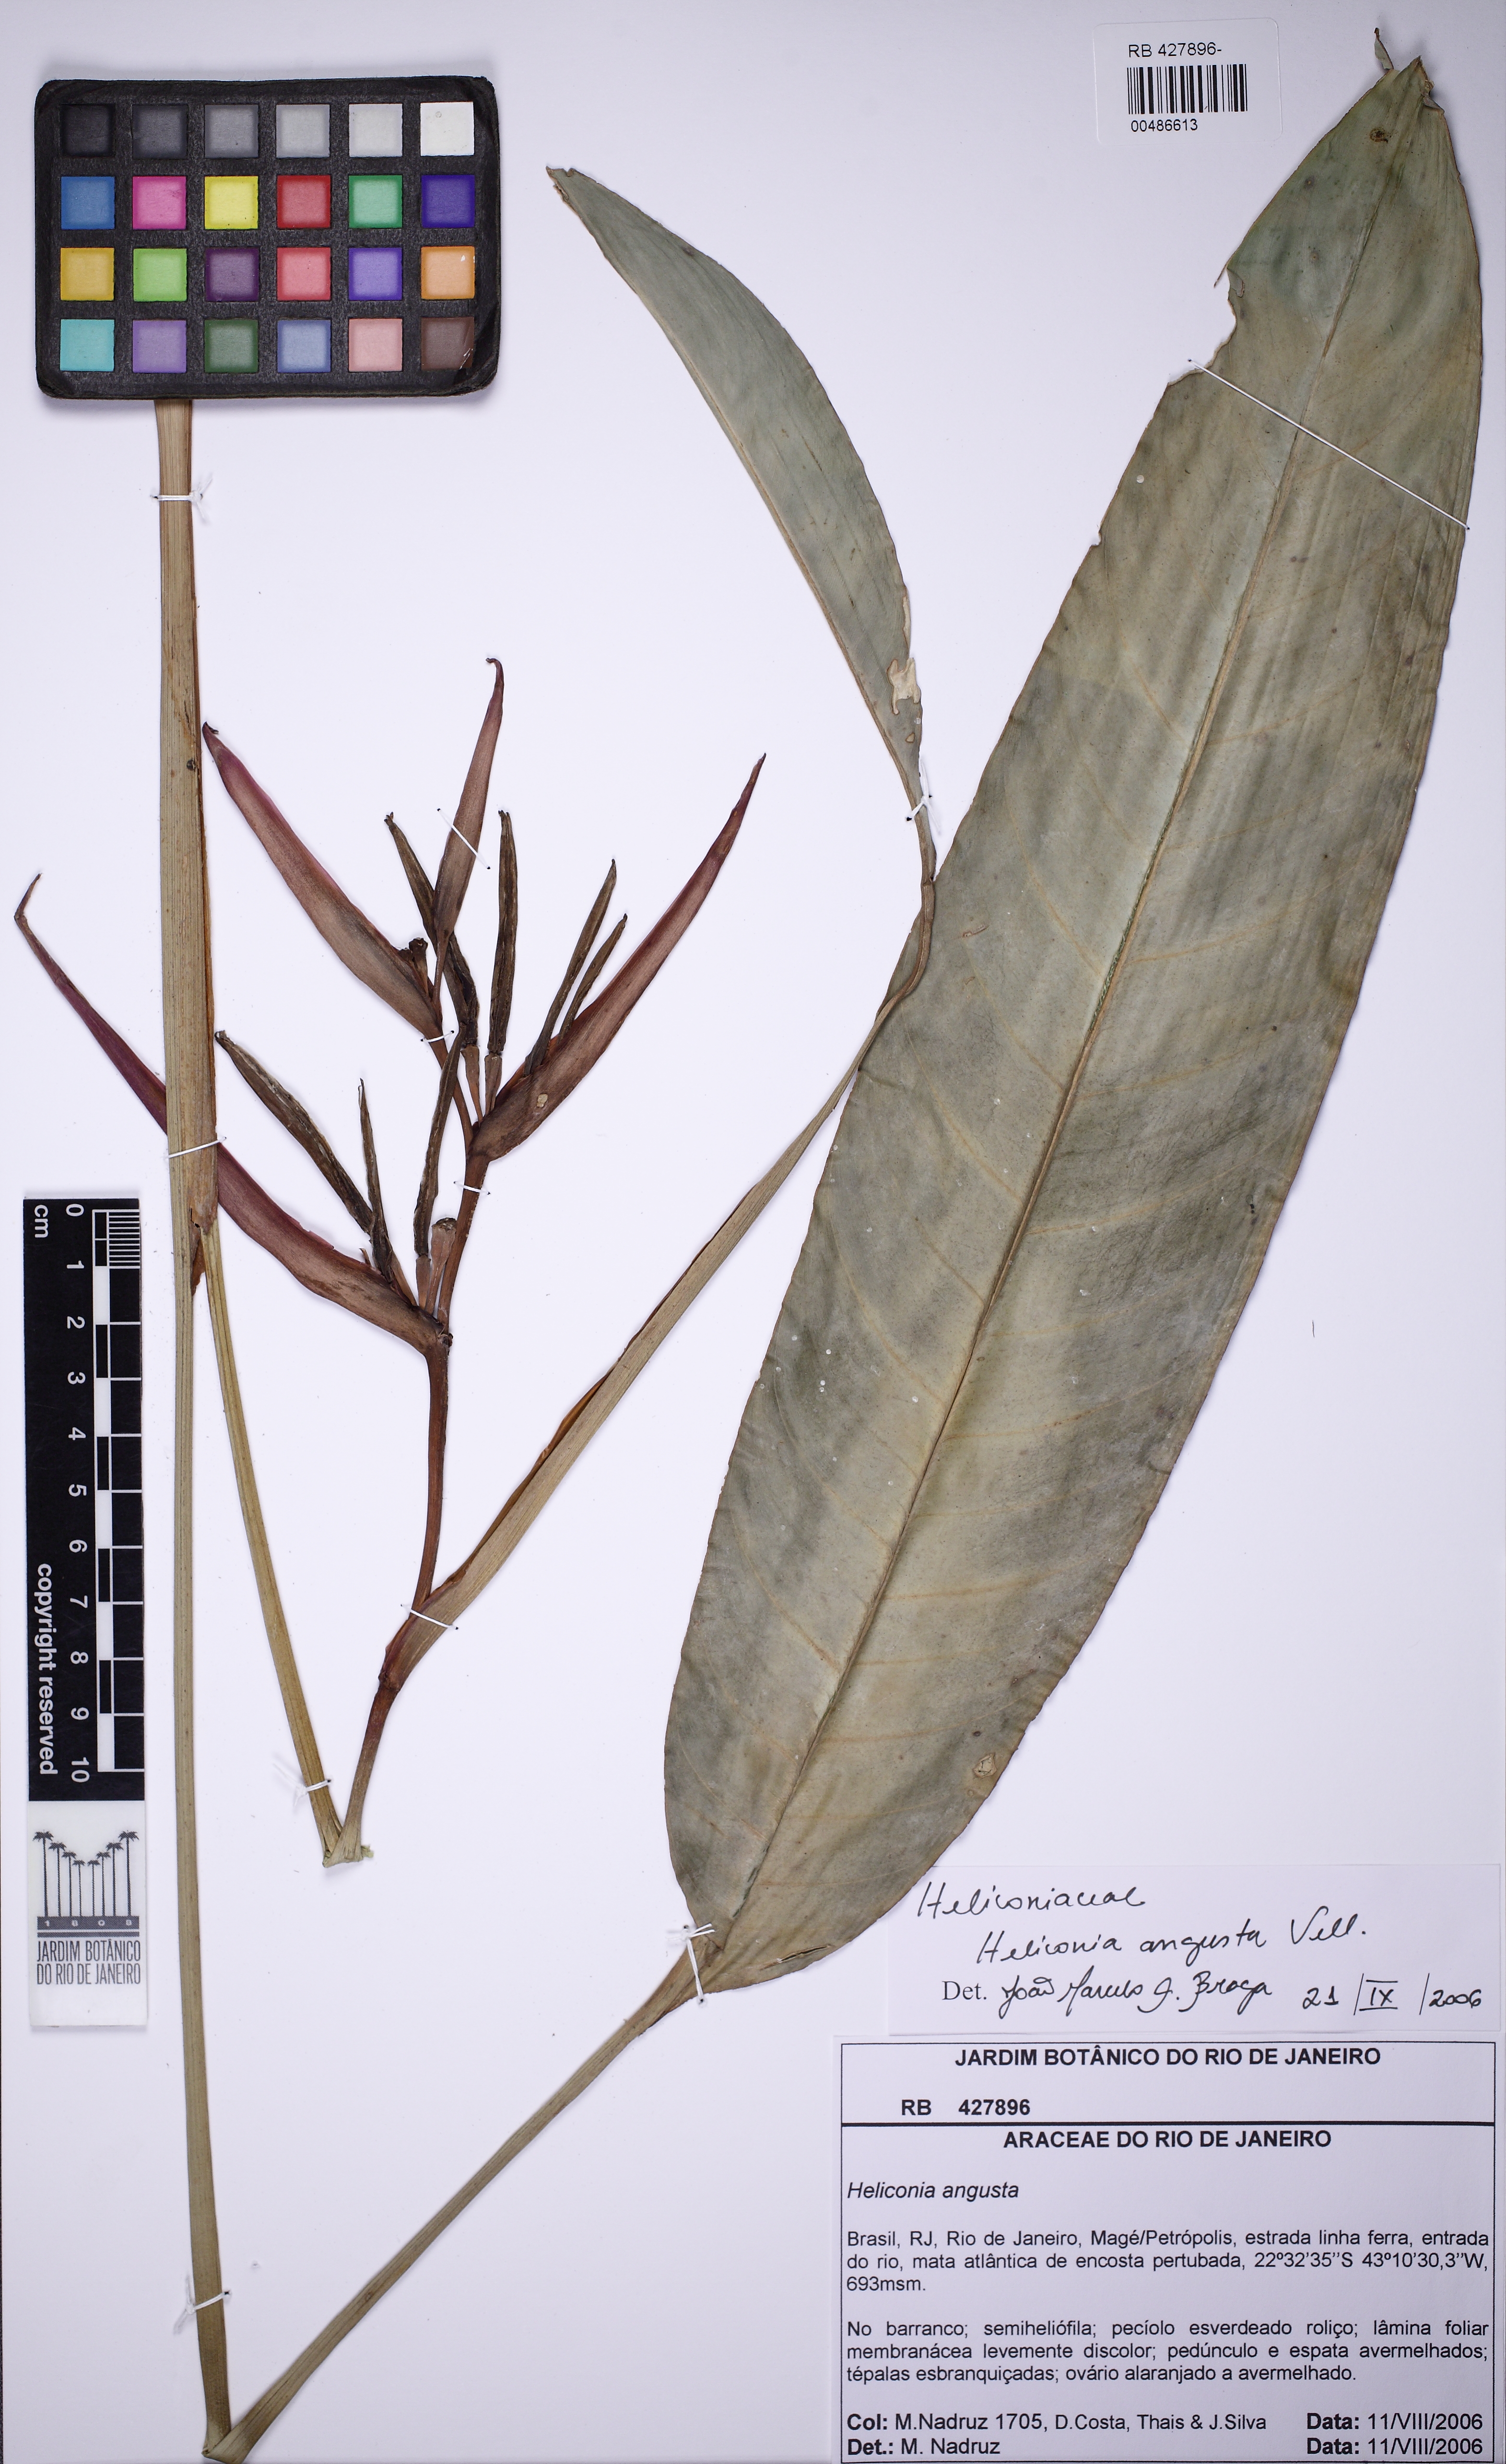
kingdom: Plantae
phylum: Tracheophyta
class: Liliopsida
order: Zingiberales
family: Heliconiaceae
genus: Heliconia
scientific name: Heliconia angusta
